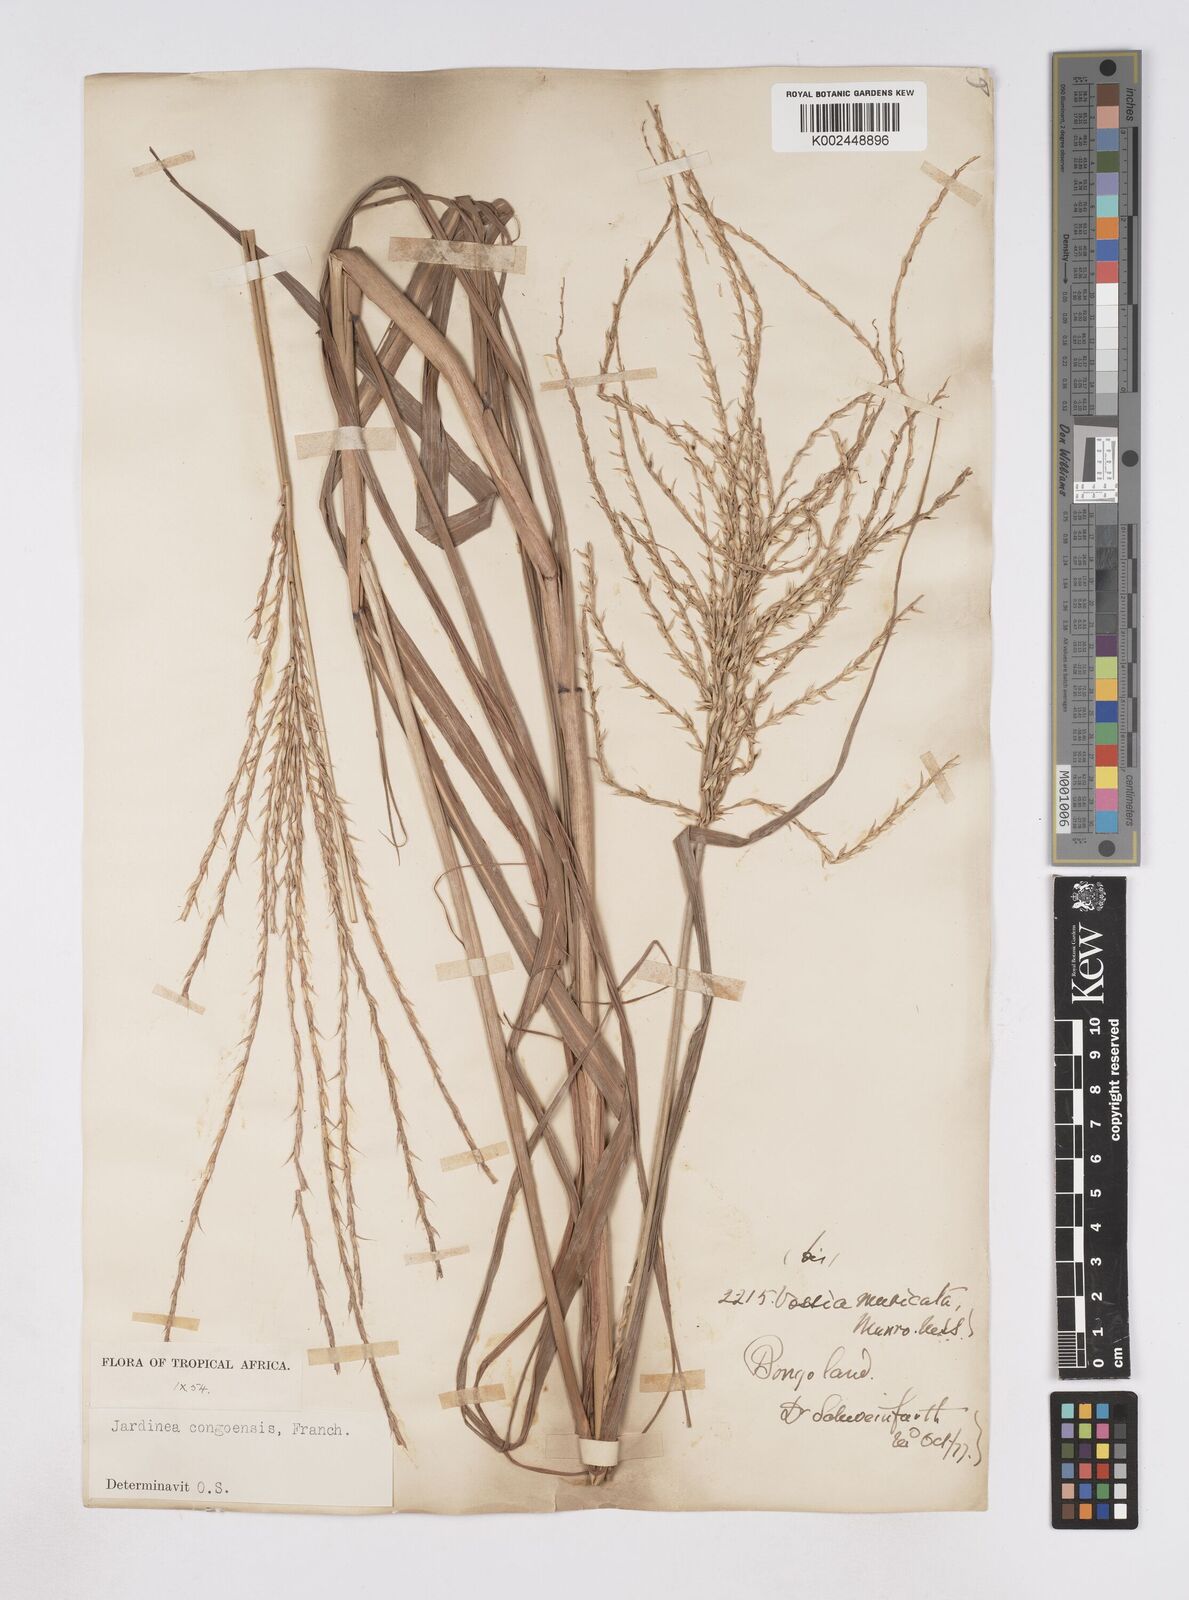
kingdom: Plantae
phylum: Tracheophyta
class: Liliopsida
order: Poales
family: Poaceae
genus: Phacelurus
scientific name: Phacelurus gabonensis
